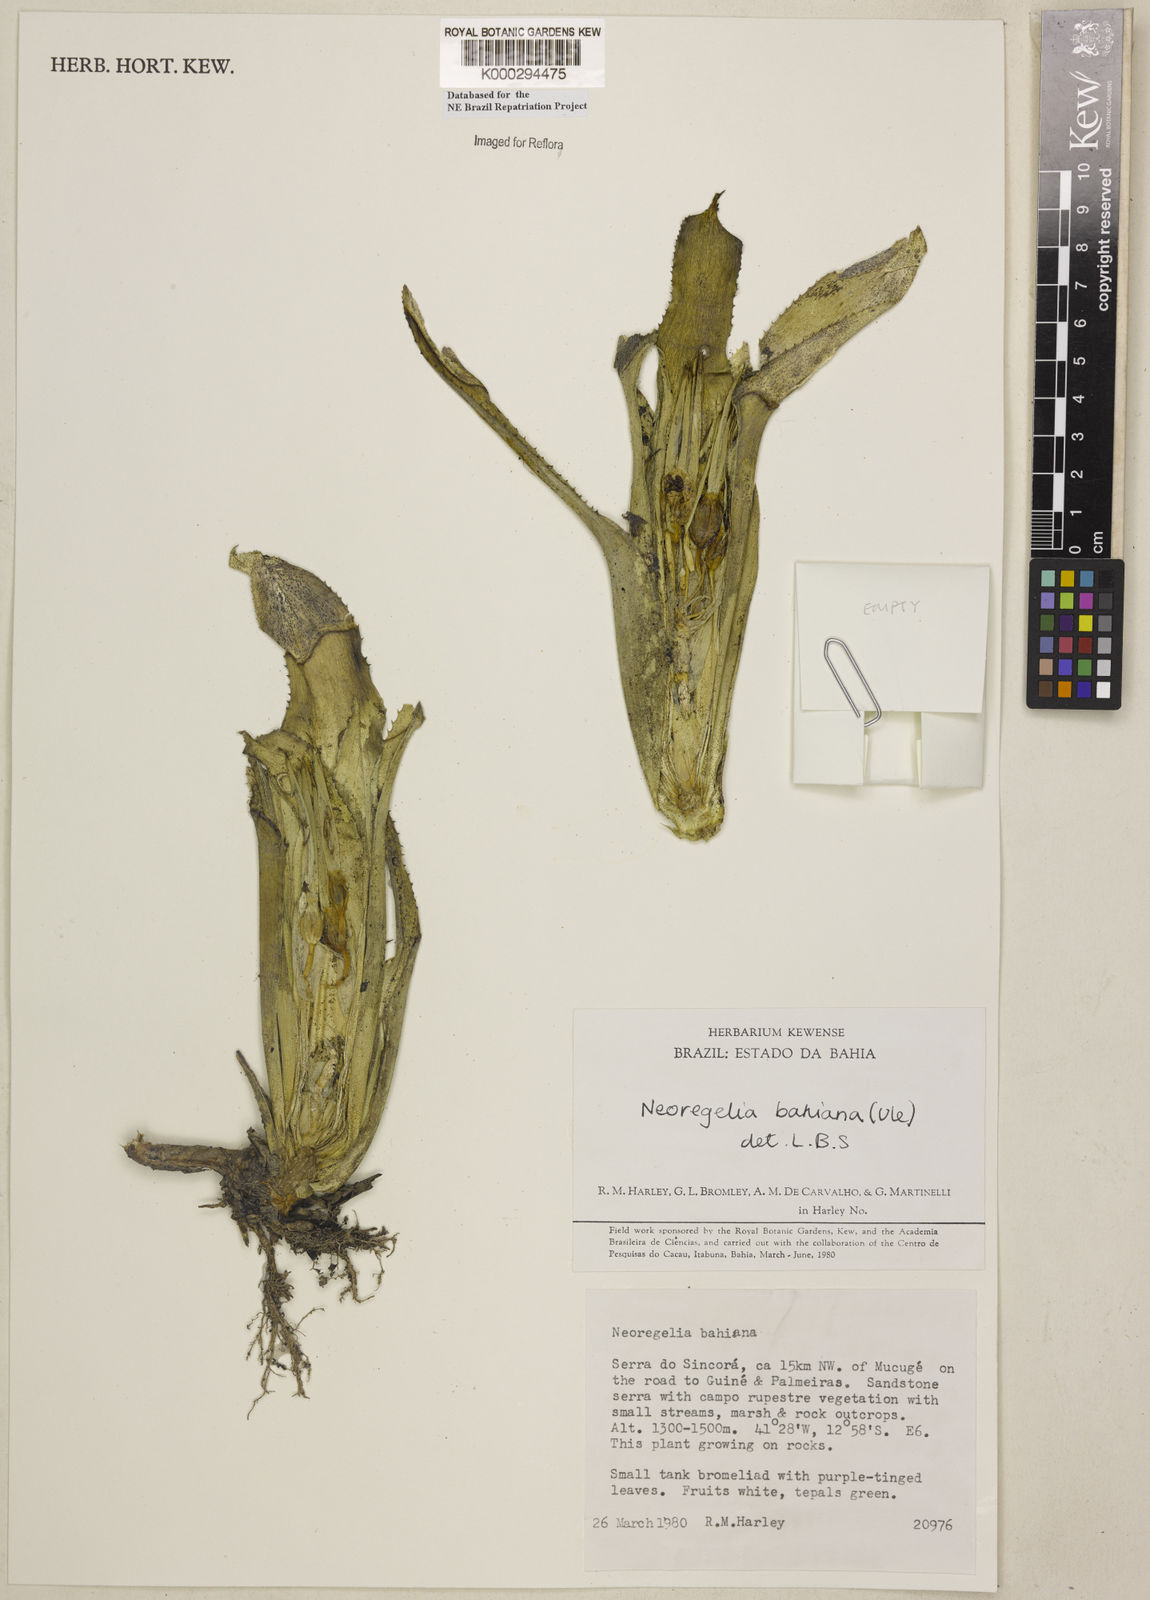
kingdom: Plantae
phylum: Tracheophyta
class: Liliopsida
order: Poales
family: Bromeliaceae
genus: Neoregelia
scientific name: Neoregelia bahiana
